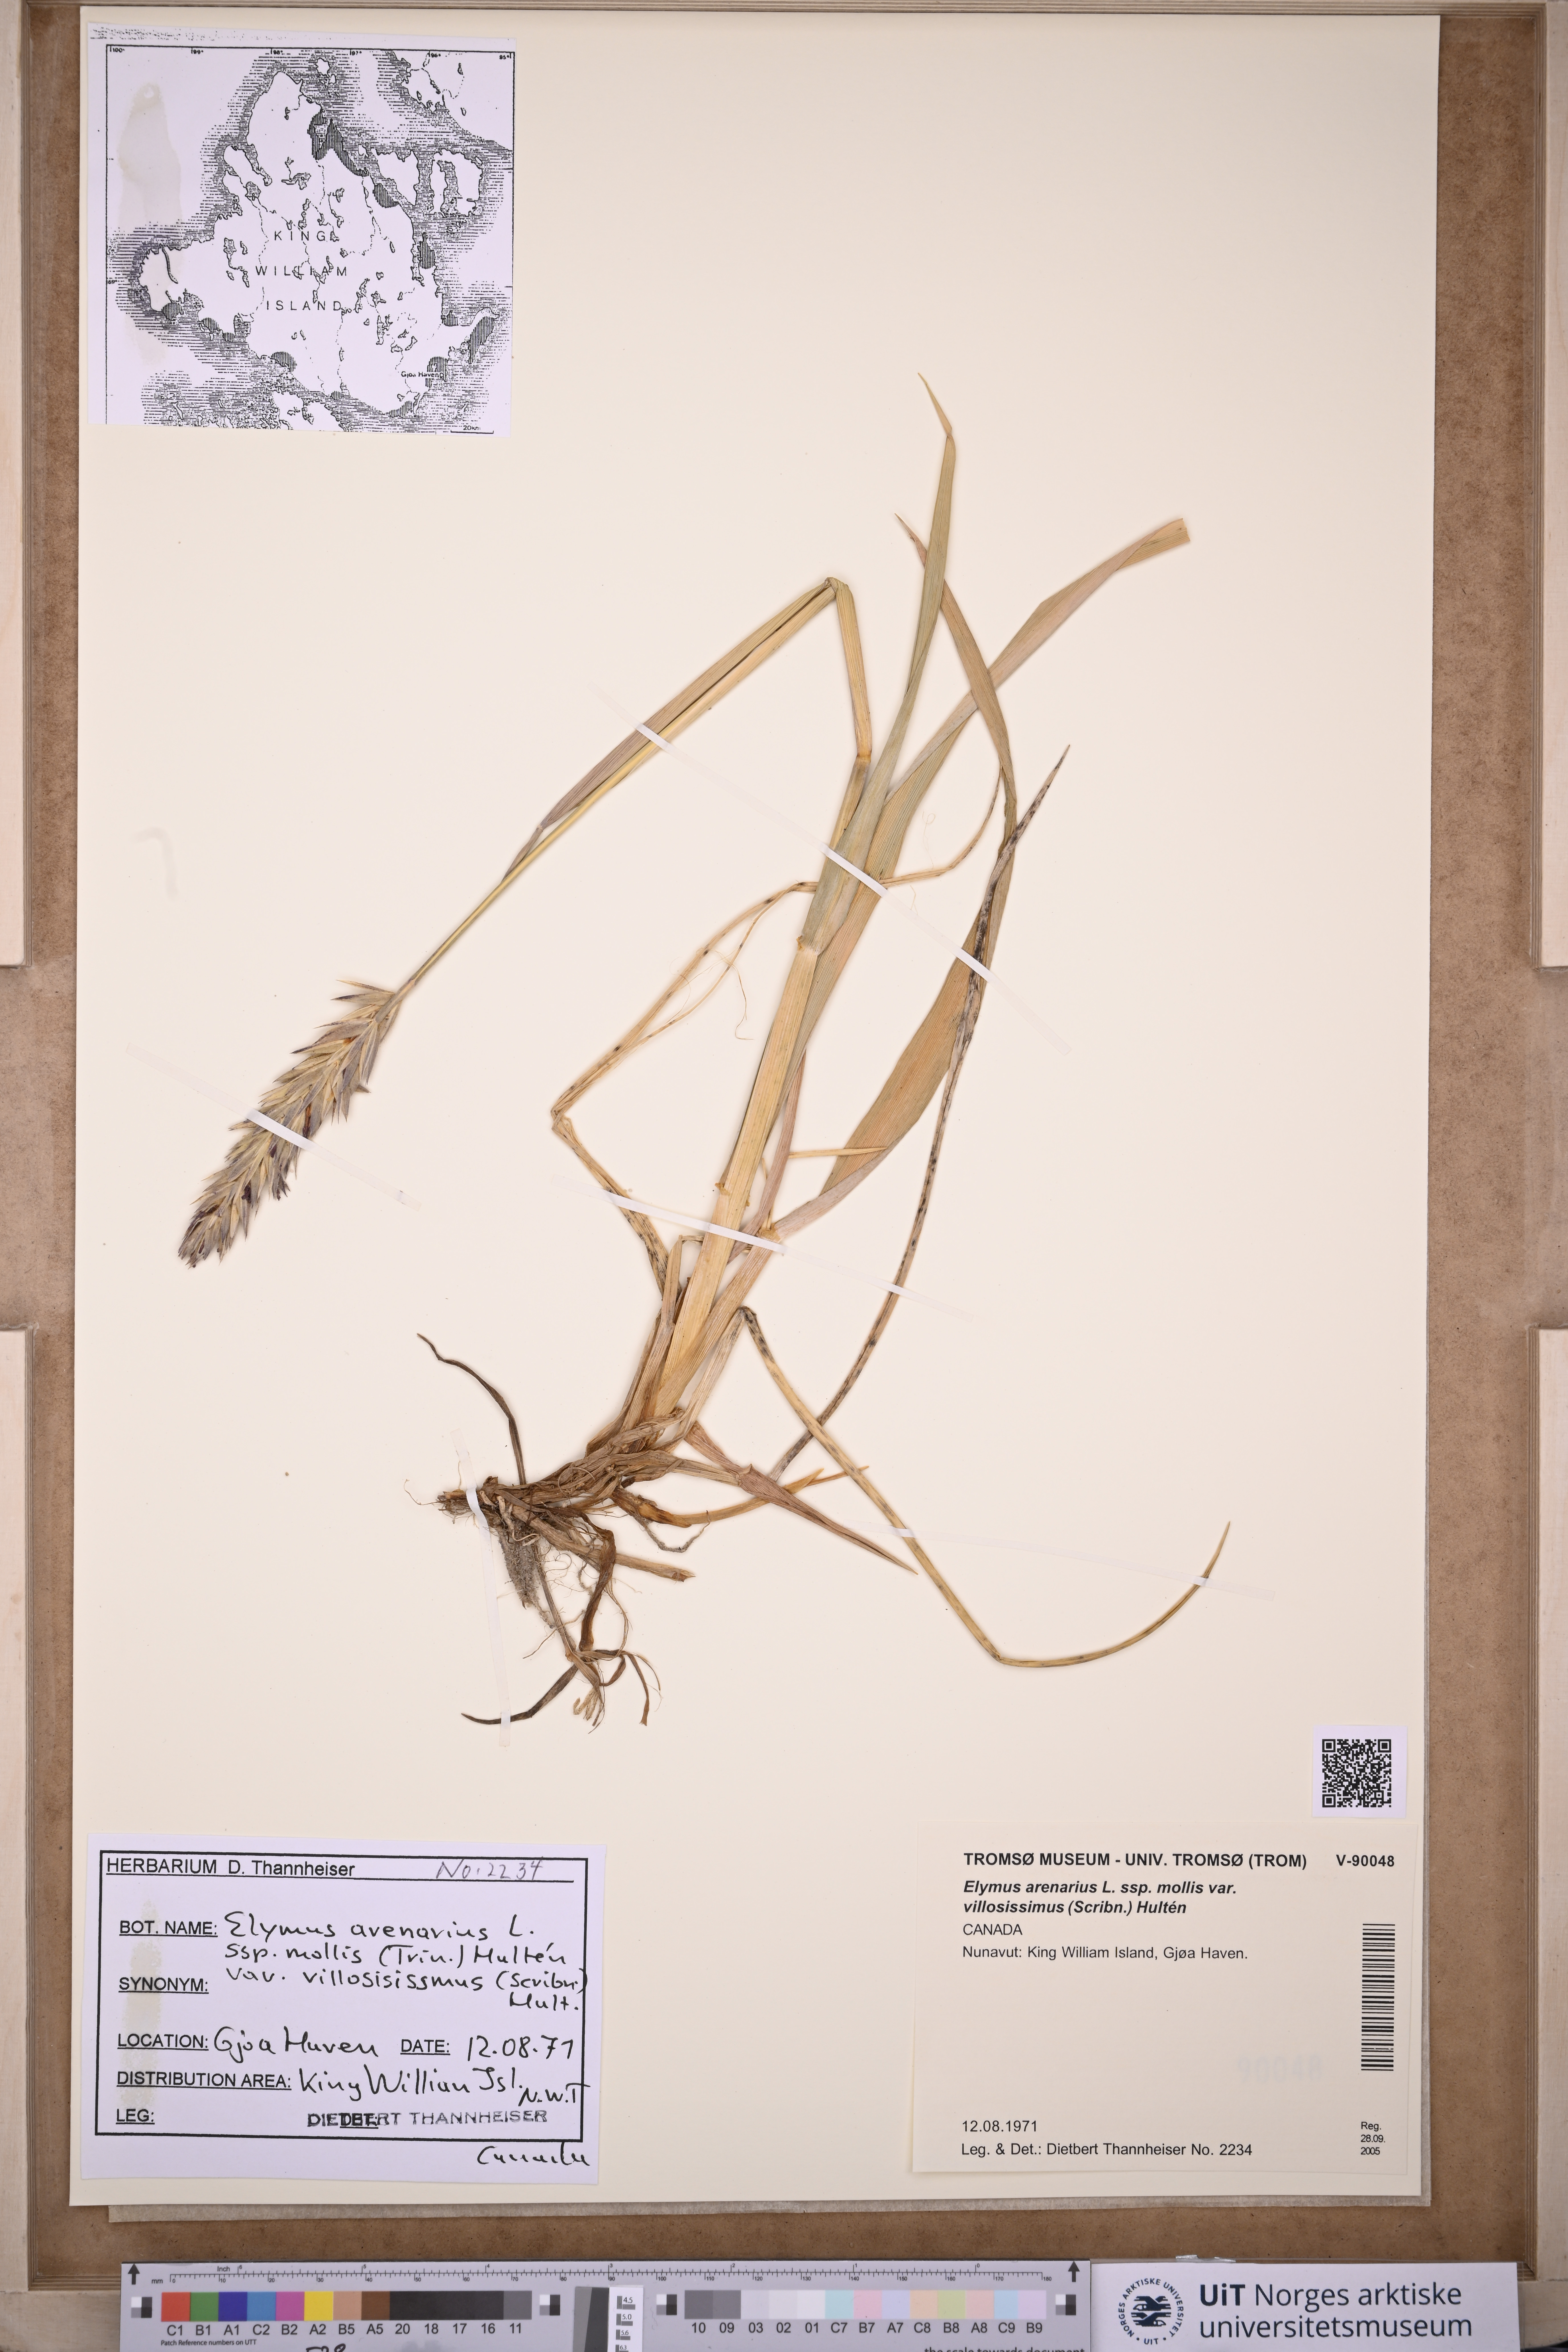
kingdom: Plantae
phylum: Tracheophyta
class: Liliopsida
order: Poales
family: Poaceae
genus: Leymus
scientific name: Leymus villosissimus
